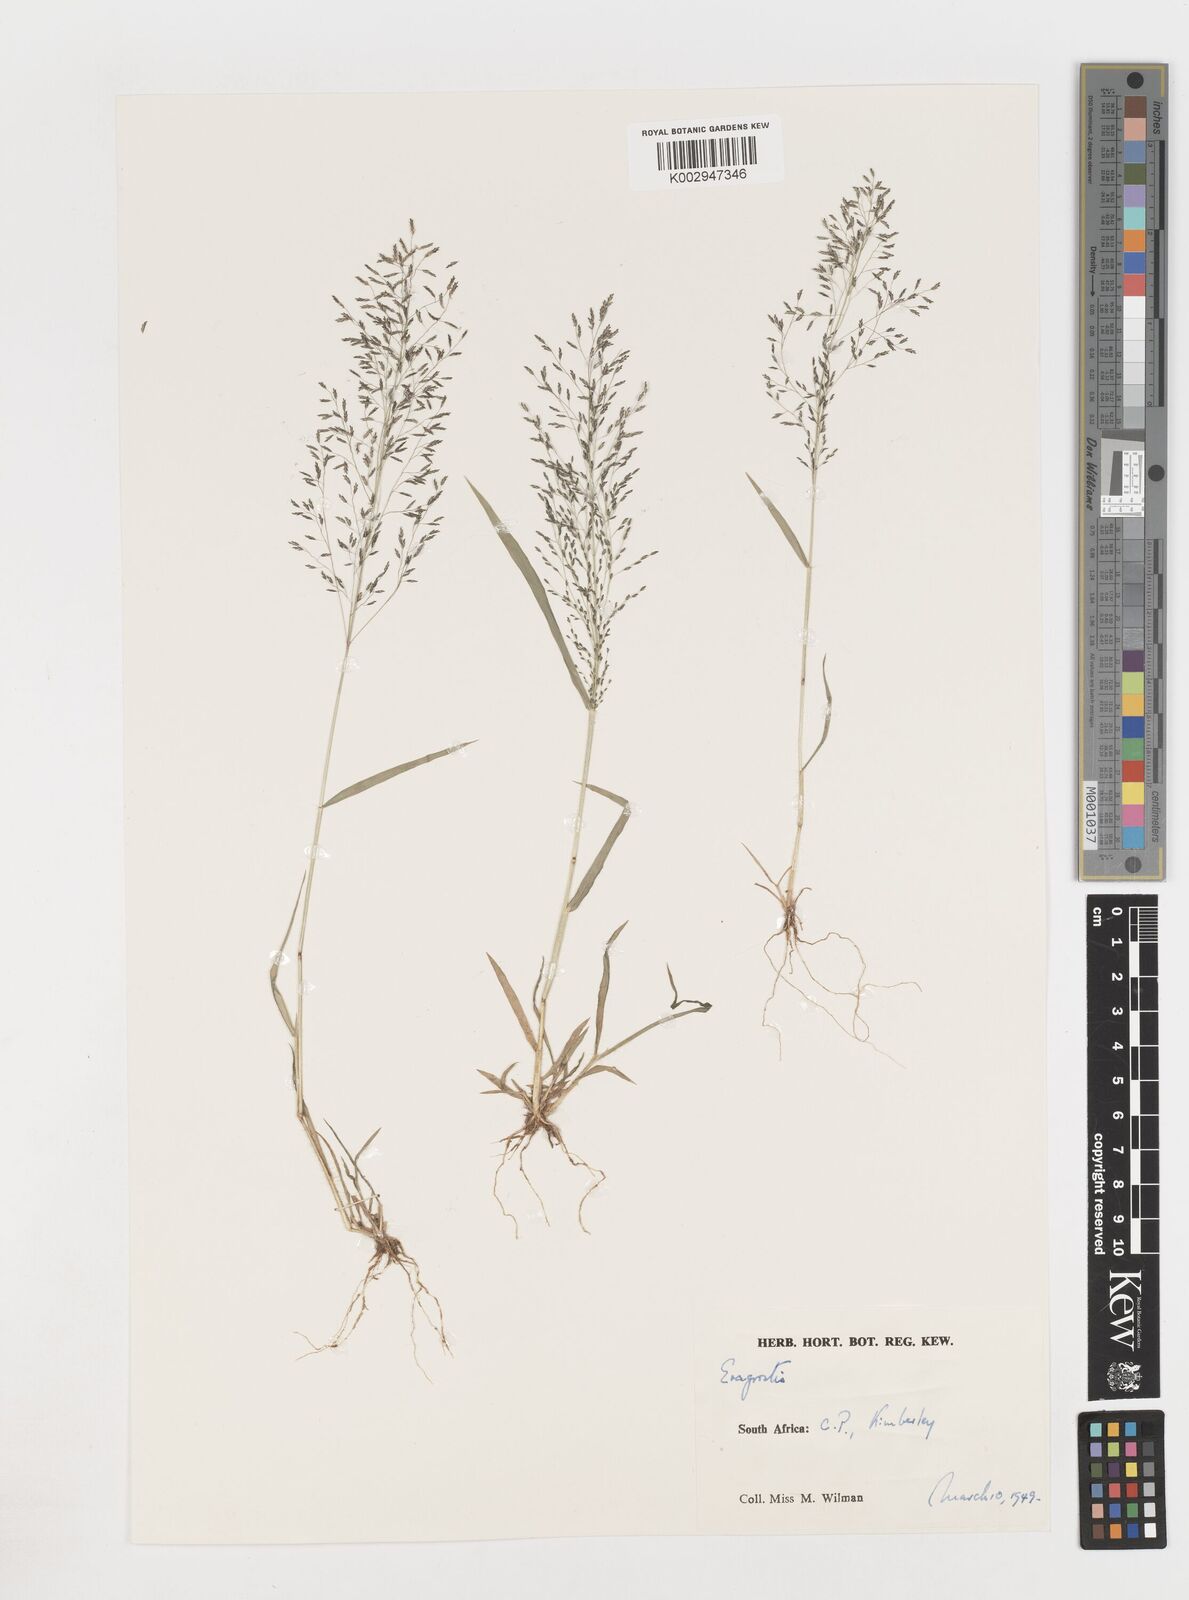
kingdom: Plantae
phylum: Tracheophyta
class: Liliopsida
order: Poales
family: Poaceae
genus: Eragrostis
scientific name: Eragrostis
